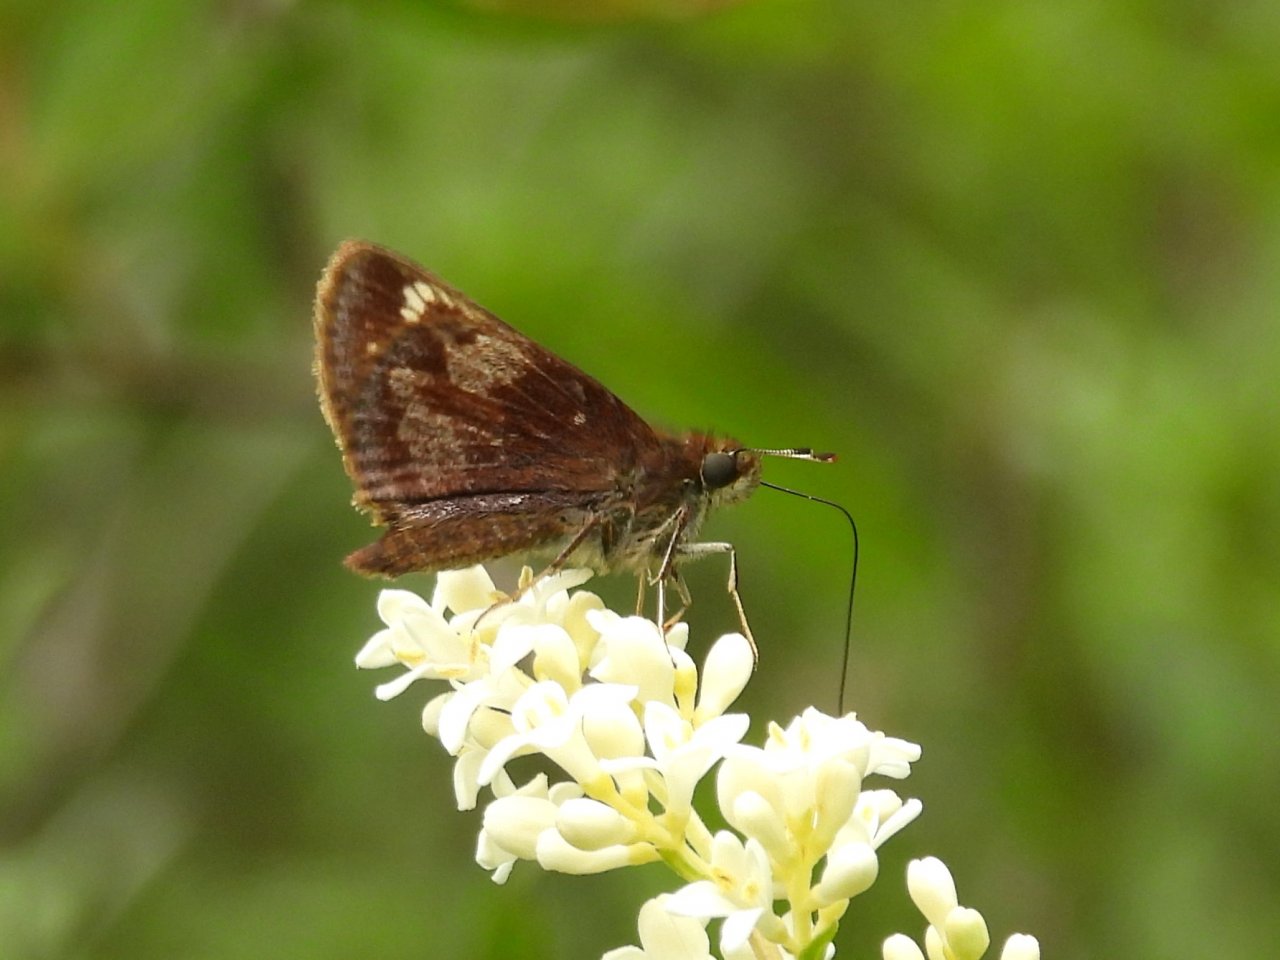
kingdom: Animalia
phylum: Arthropoda
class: Insecta
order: Lepidoptera
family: Hesperiidae
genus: Lon
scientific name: Lon hobomok
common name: Hobomok Skipper
